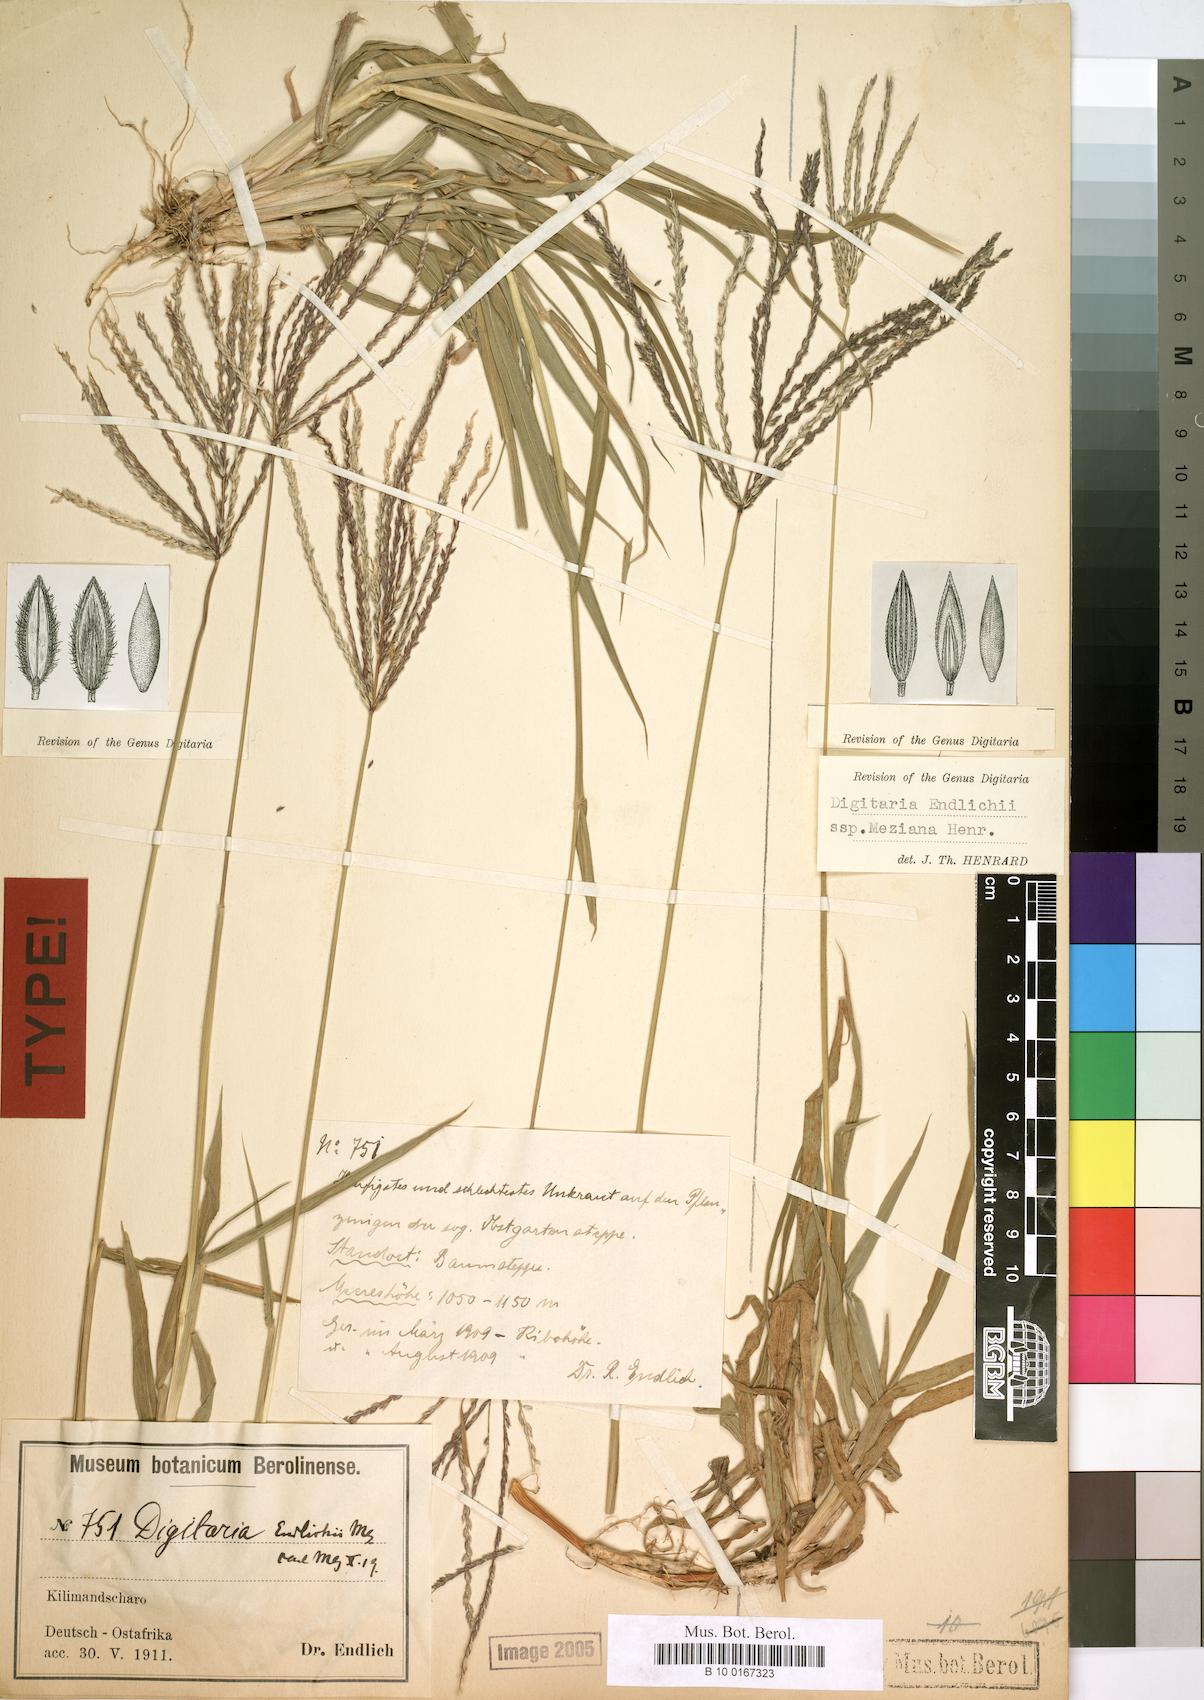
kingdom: Plantae
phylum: Tracheophyta
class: Liliopsida
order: Poales
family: Poaceae
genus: Digitaria
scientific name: Digitaria milanjiana
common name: Madagascar crabgrass
